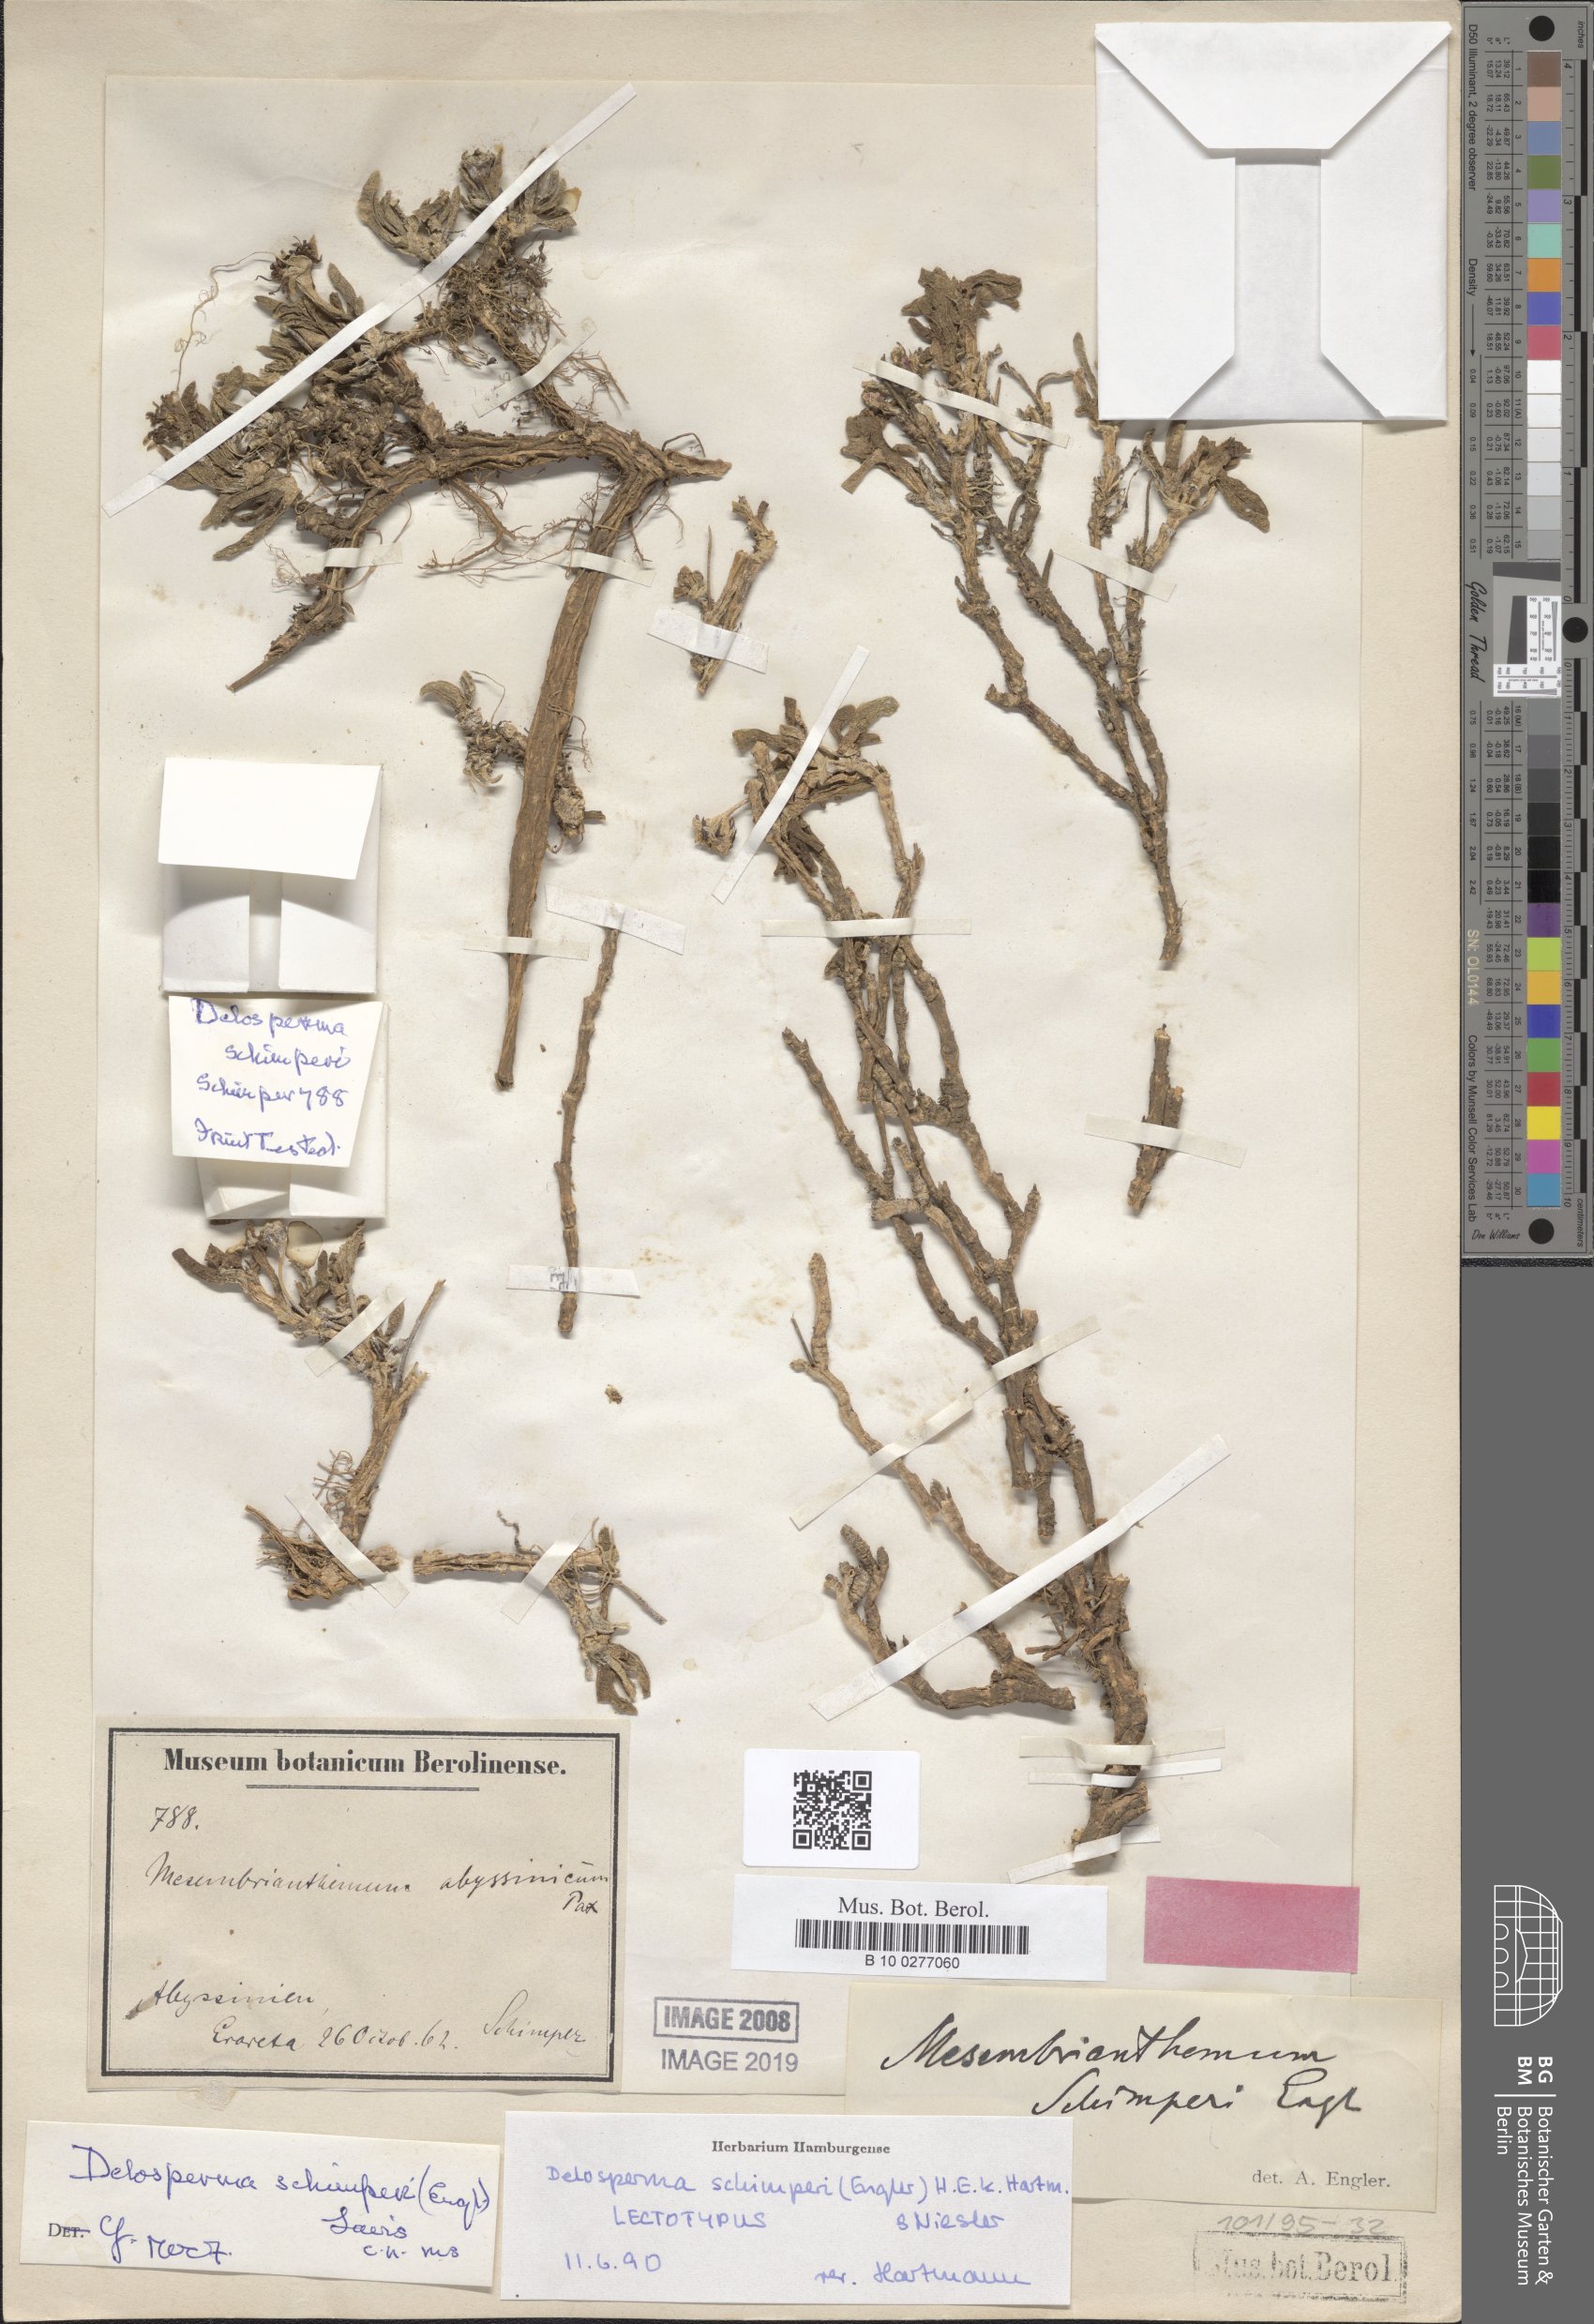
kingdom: Plantae
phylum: Tracheophyta
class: Magnoliopsida
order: Caryophyllales
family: Aizoaceae
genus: Delosperma
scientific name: Delosperma schimperi
